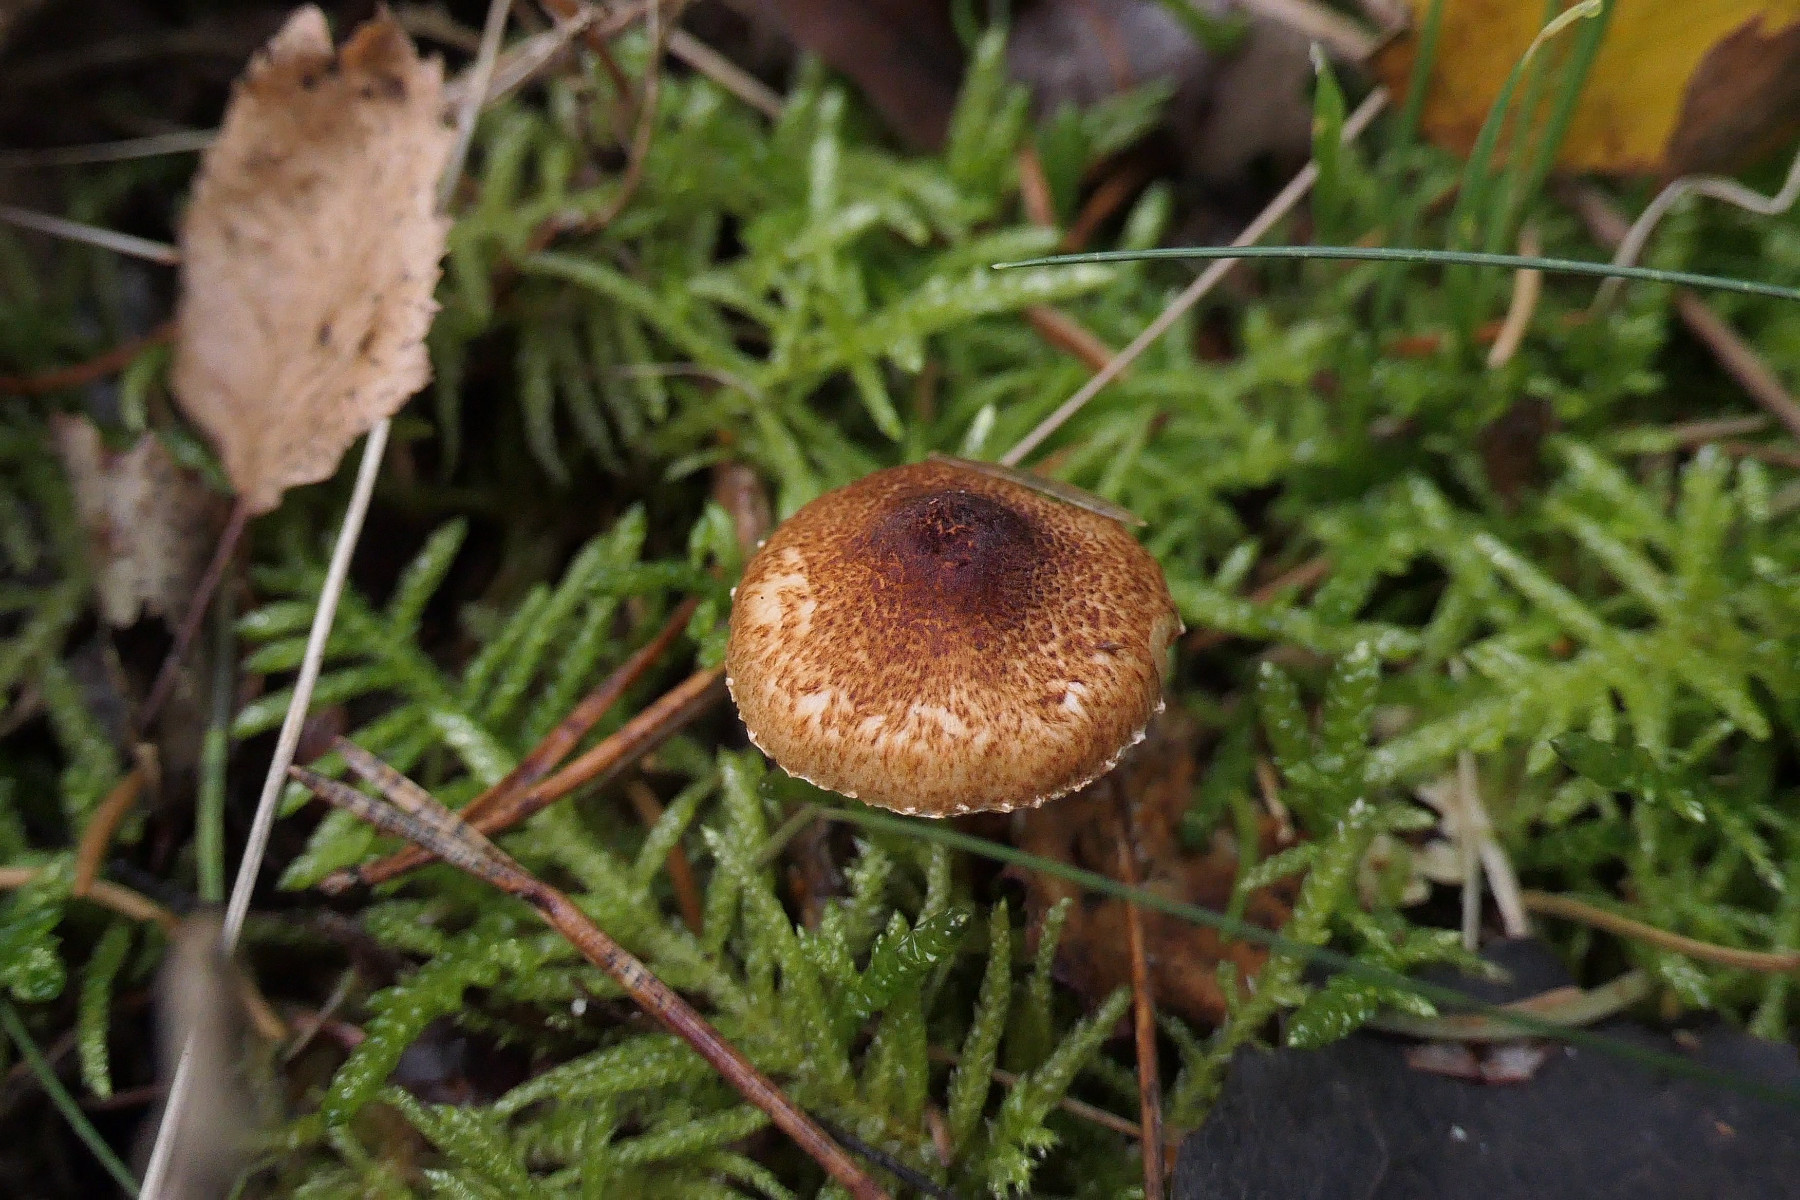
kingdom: Fungi
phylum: Basidiomycota
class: Agaricomycetes
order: Agaricales
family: Agaricaceae
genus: Lepiota
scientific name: Lepiota castanea
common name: kastaniebrun parasolhat
